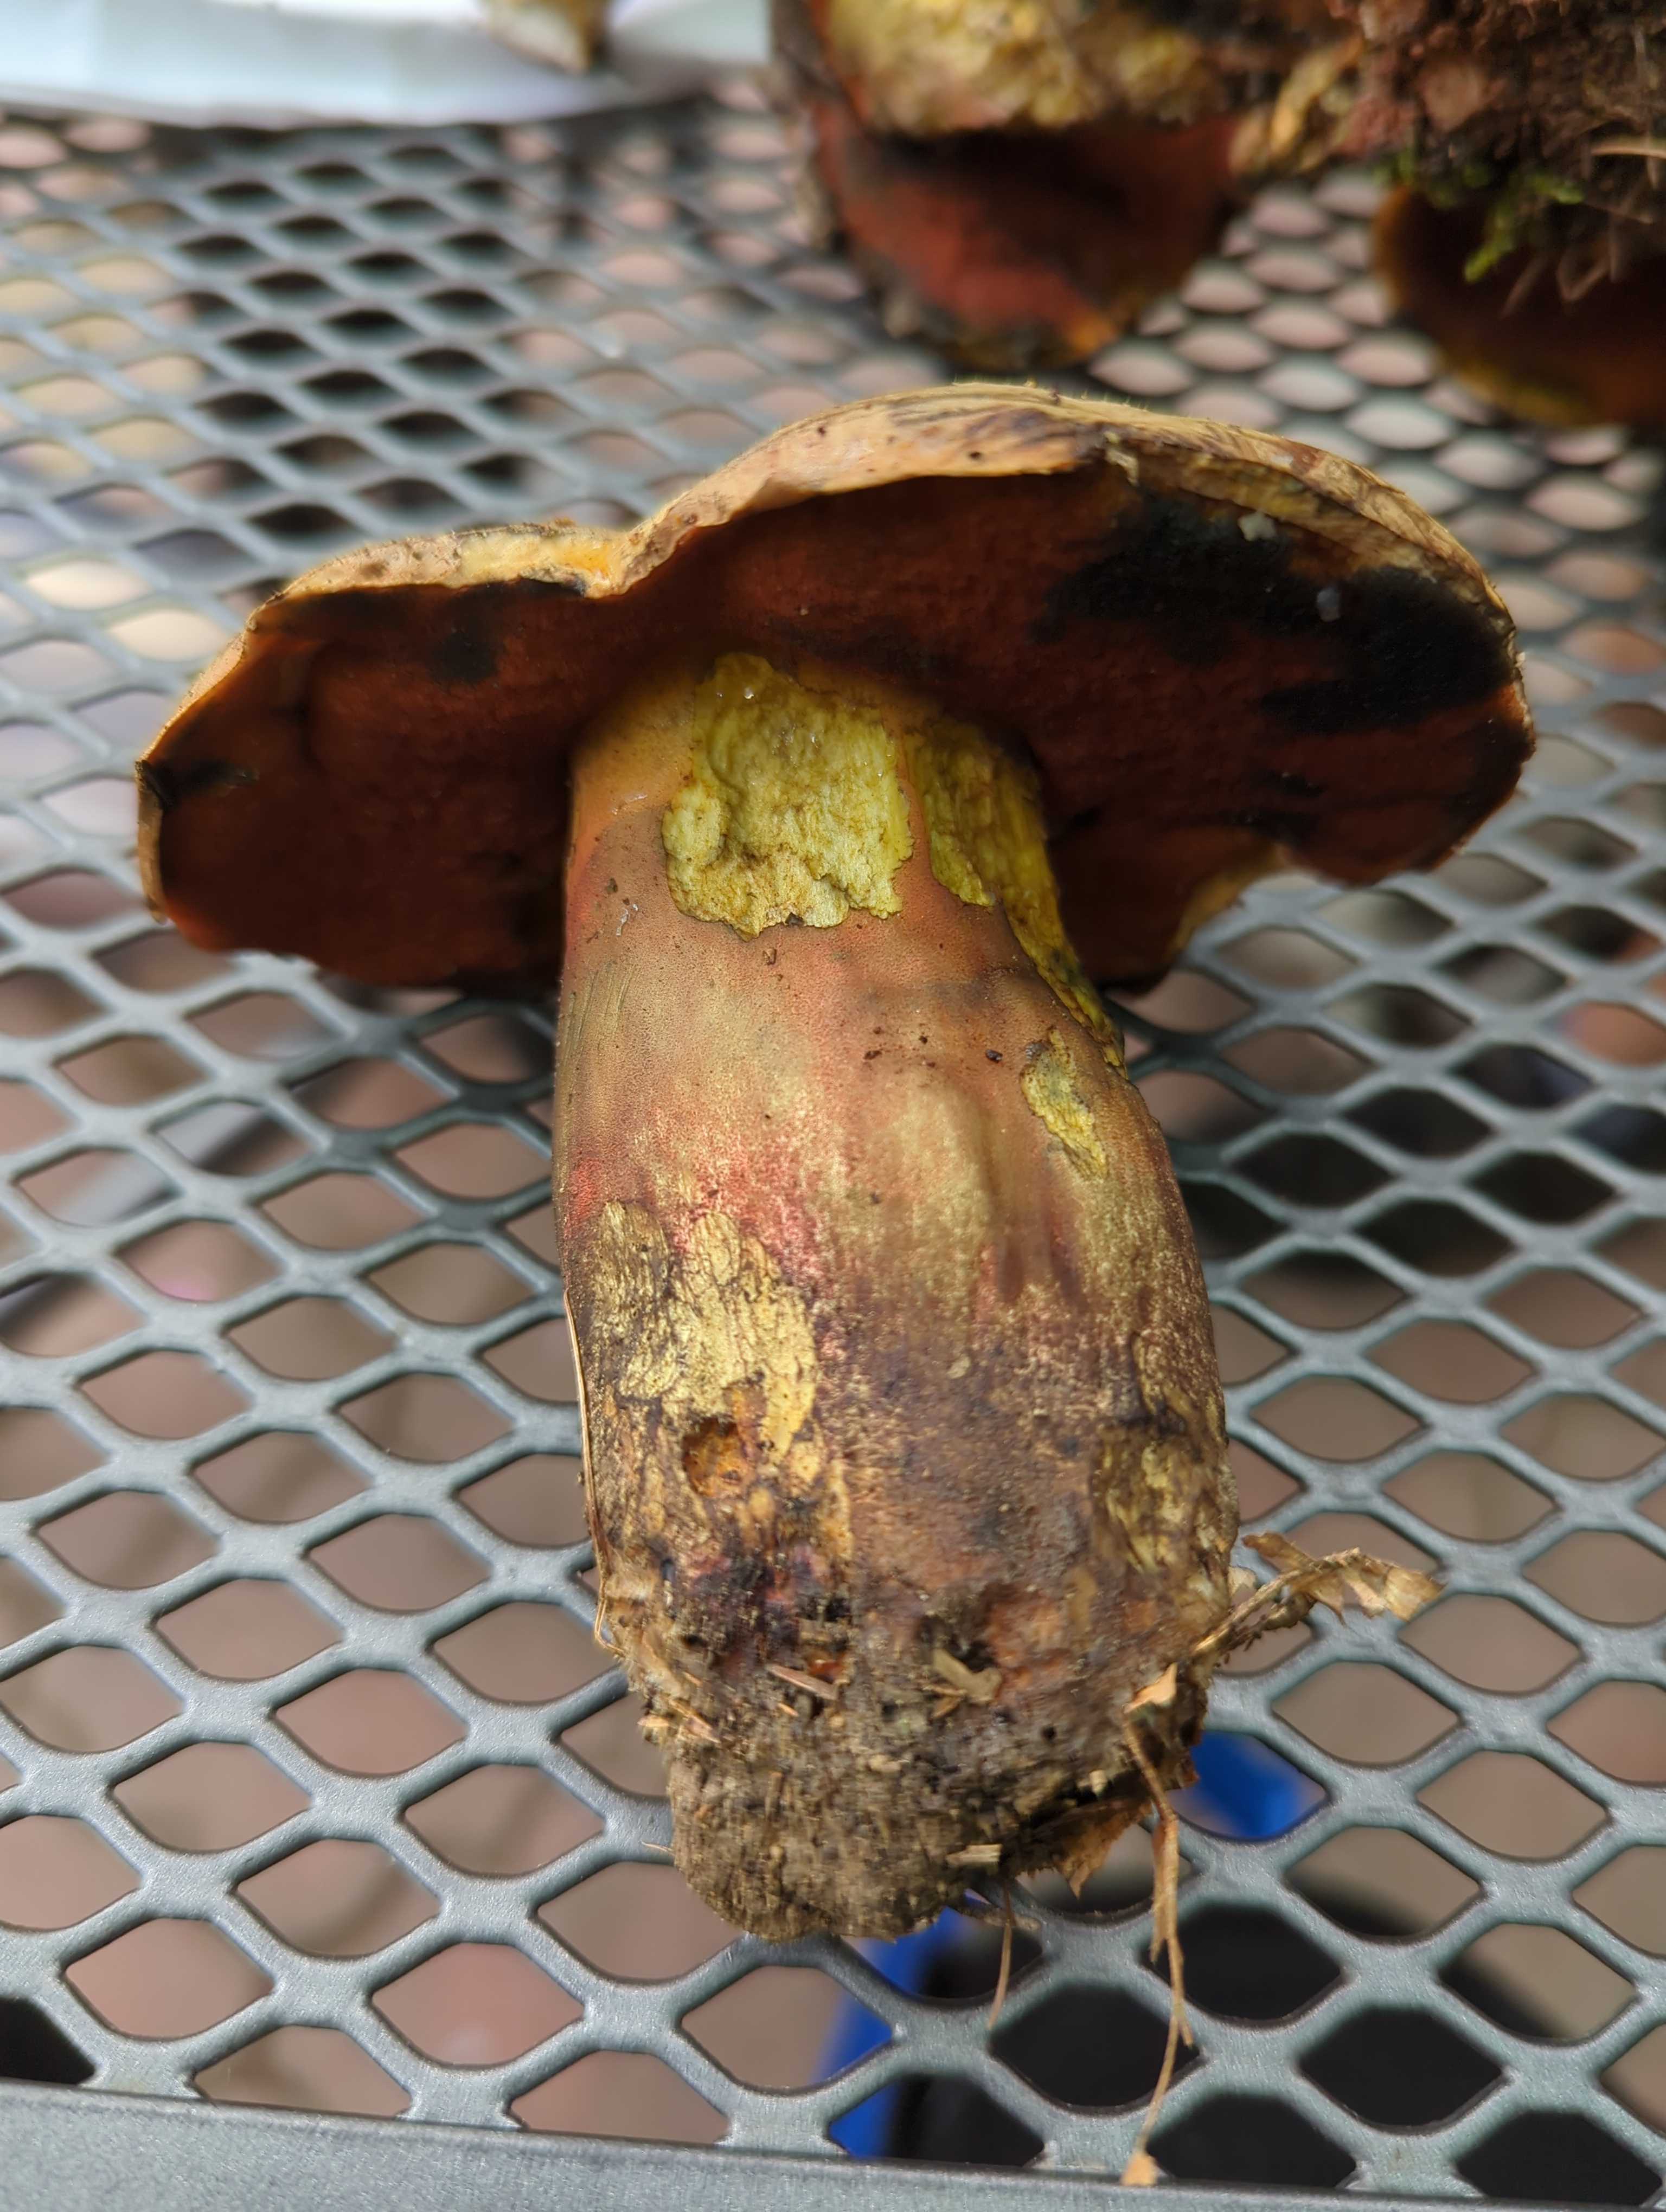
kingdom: Fungi
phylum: Basidiomycota
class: Agaricomycetes
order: Boletales
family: Boletaceae
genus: Suillellus
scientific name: Suillellus luridus
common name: netstokket indigorørhat
